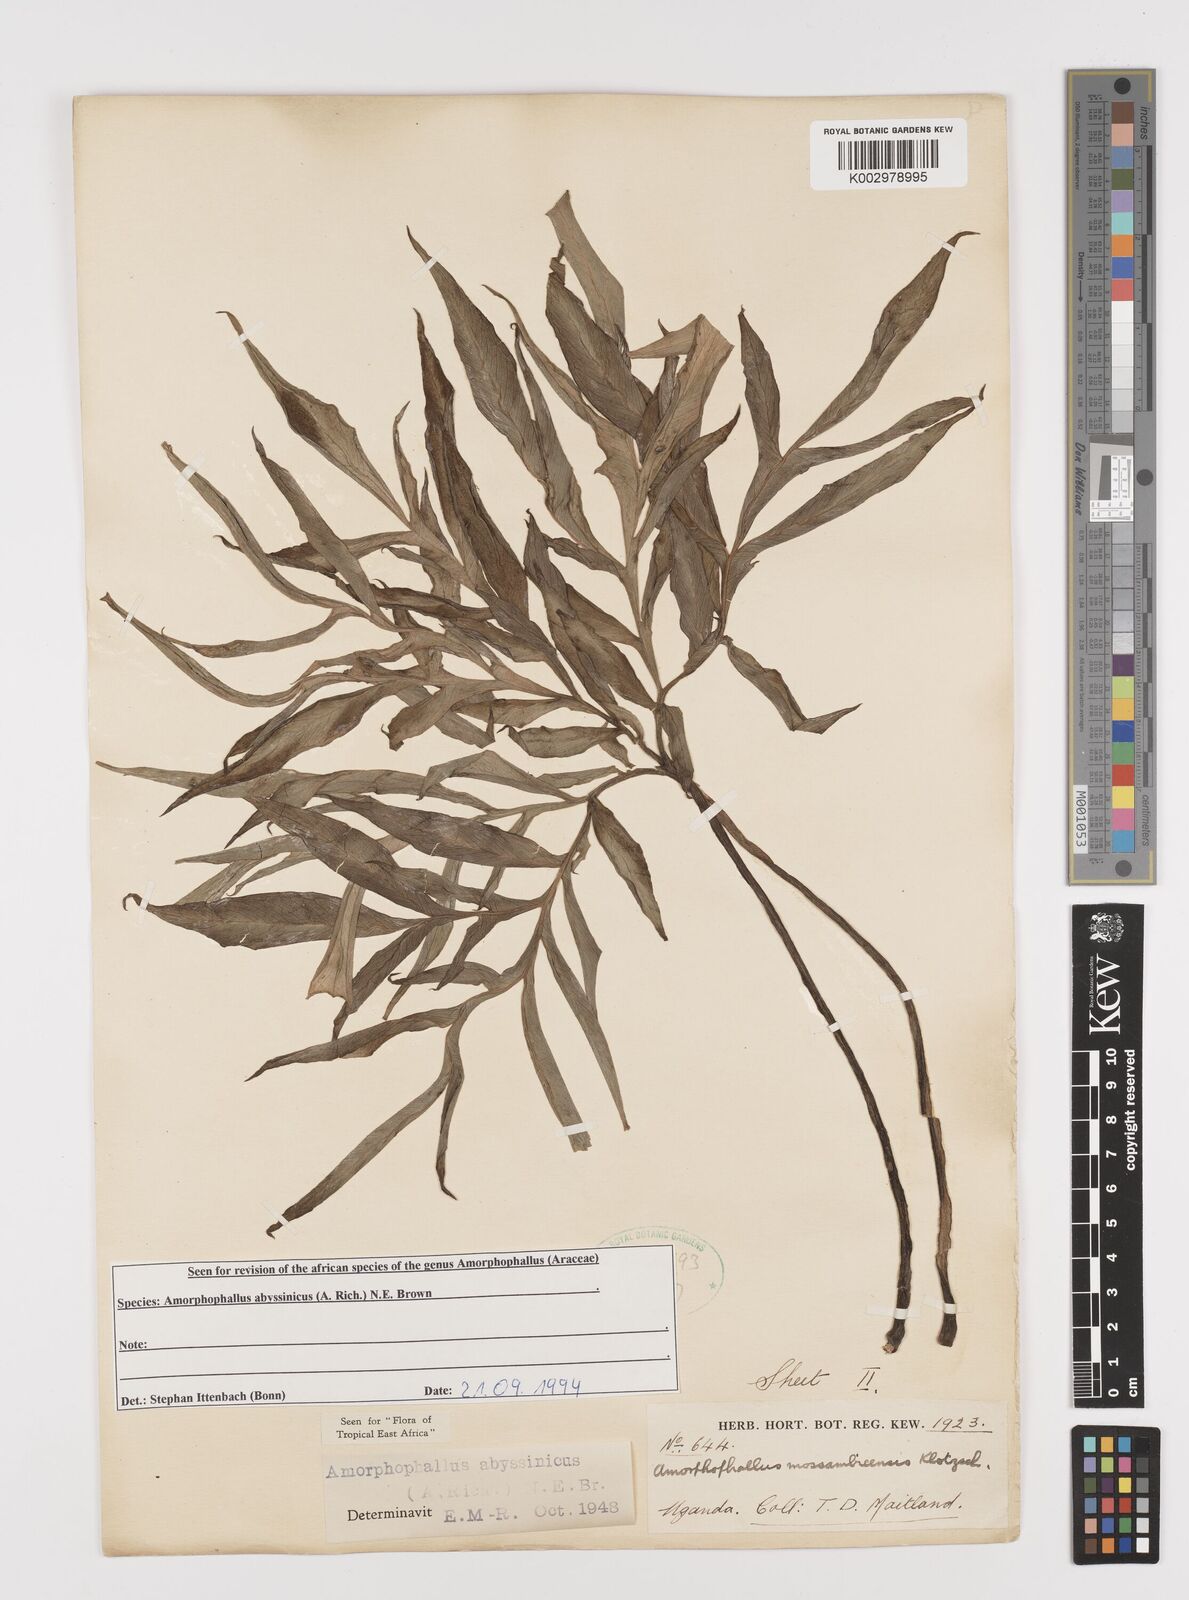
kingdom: Plantae
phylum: Tracheophyta
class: Liliopsida
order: Alismatales
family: Araceae
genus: Amorphophallus
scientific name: Amorphophallus abyssinicus
